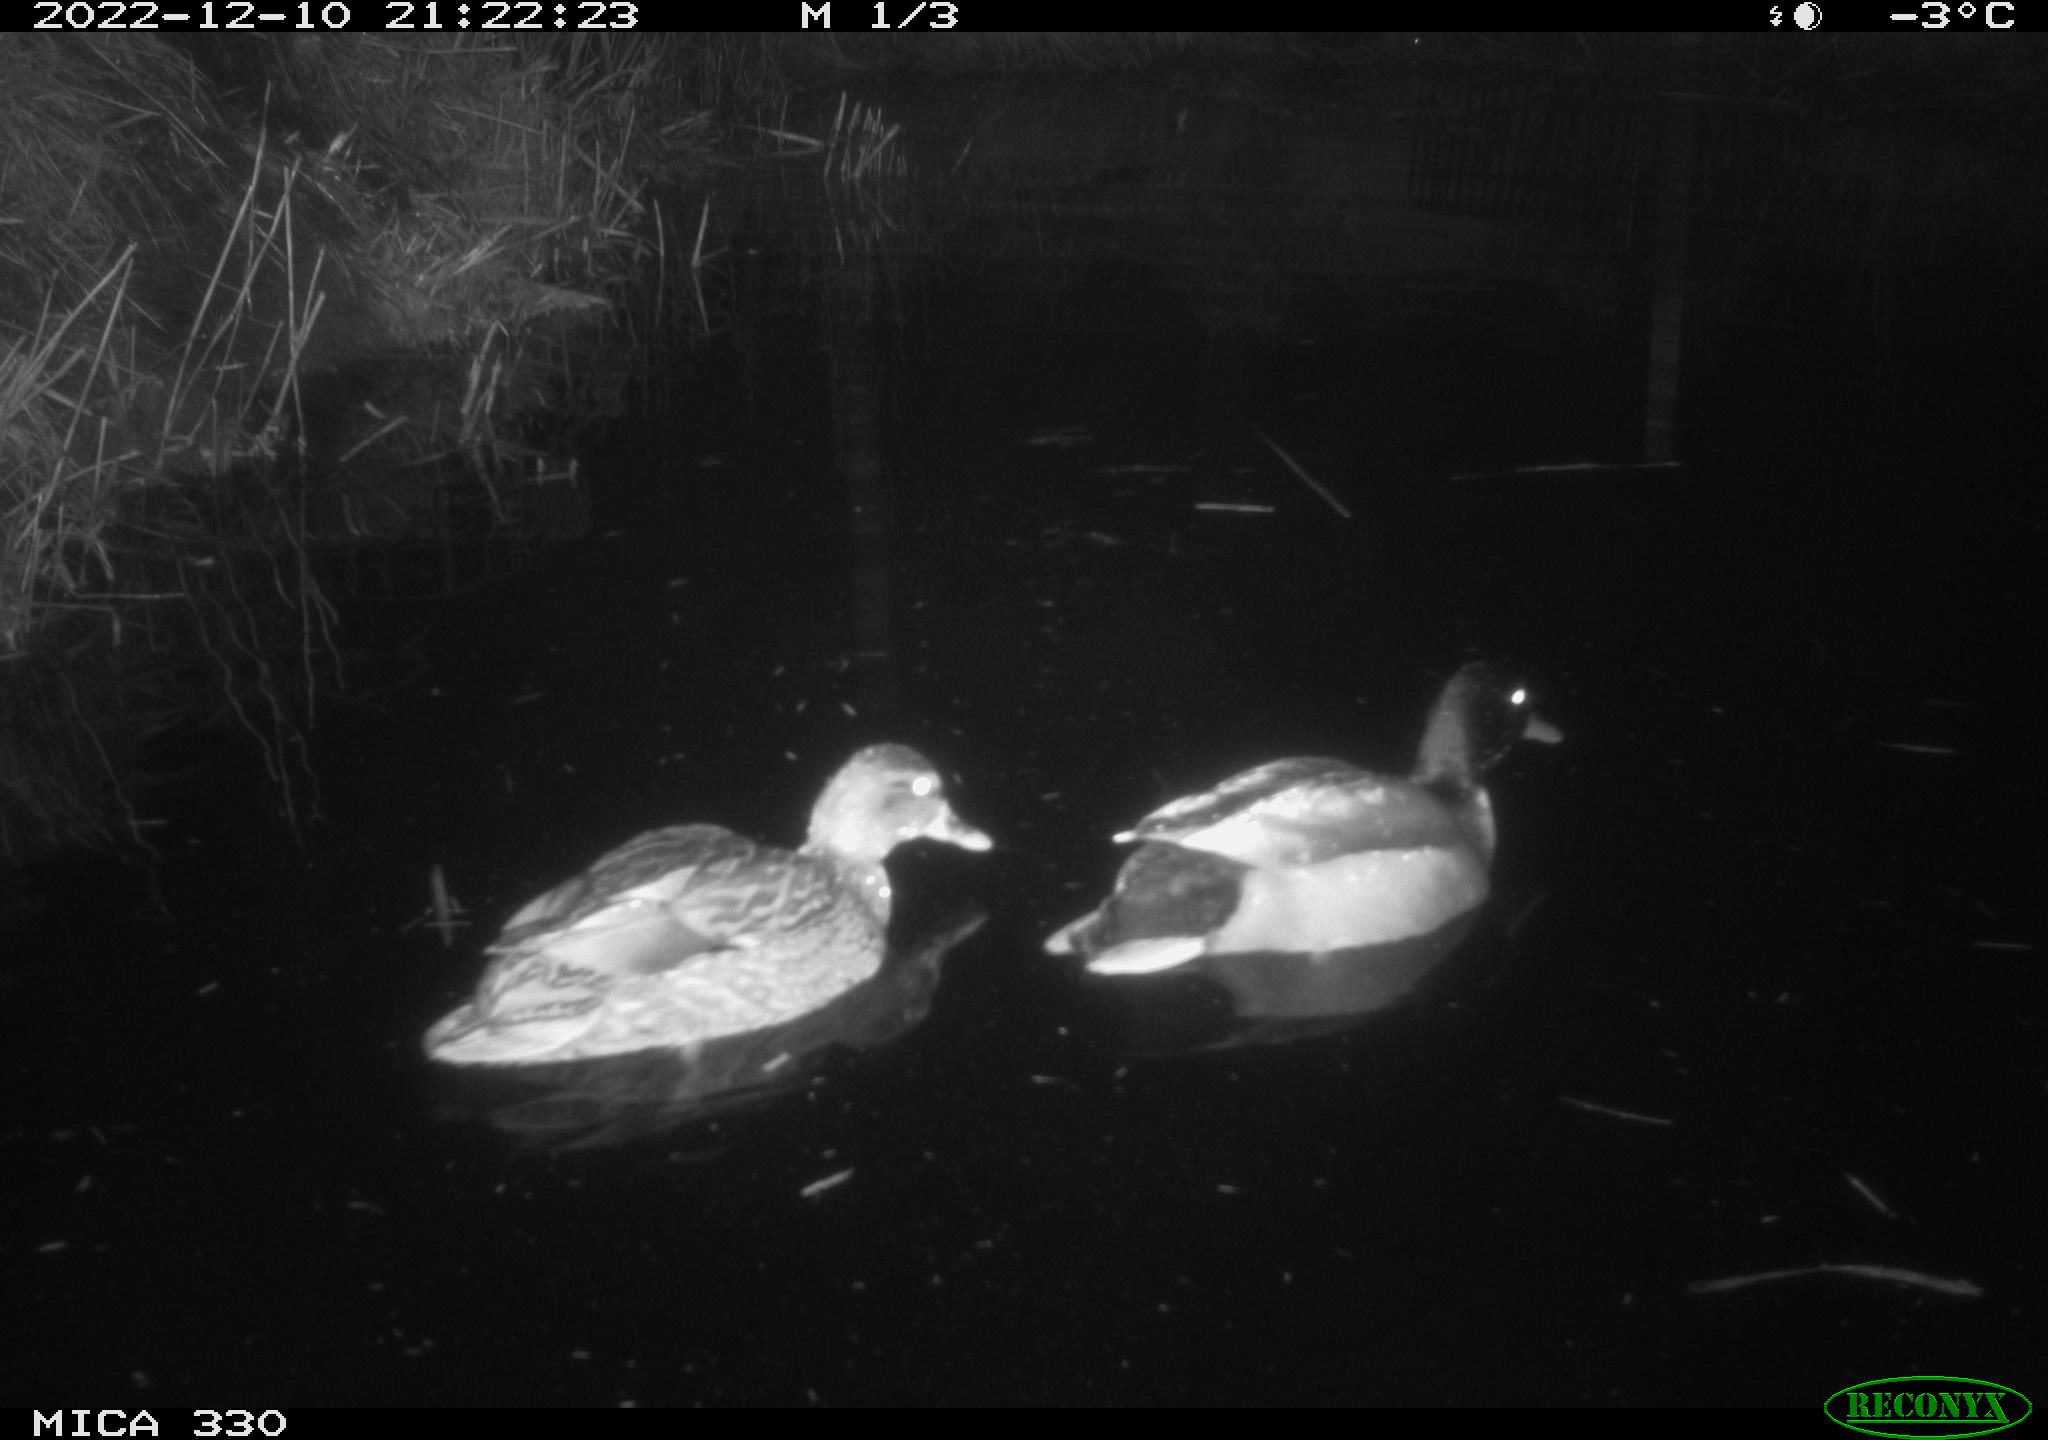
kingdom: Animalia
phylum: Chordata
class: Aves
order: Anseriformes
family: Anatidae
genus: Anas
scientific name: Anas
